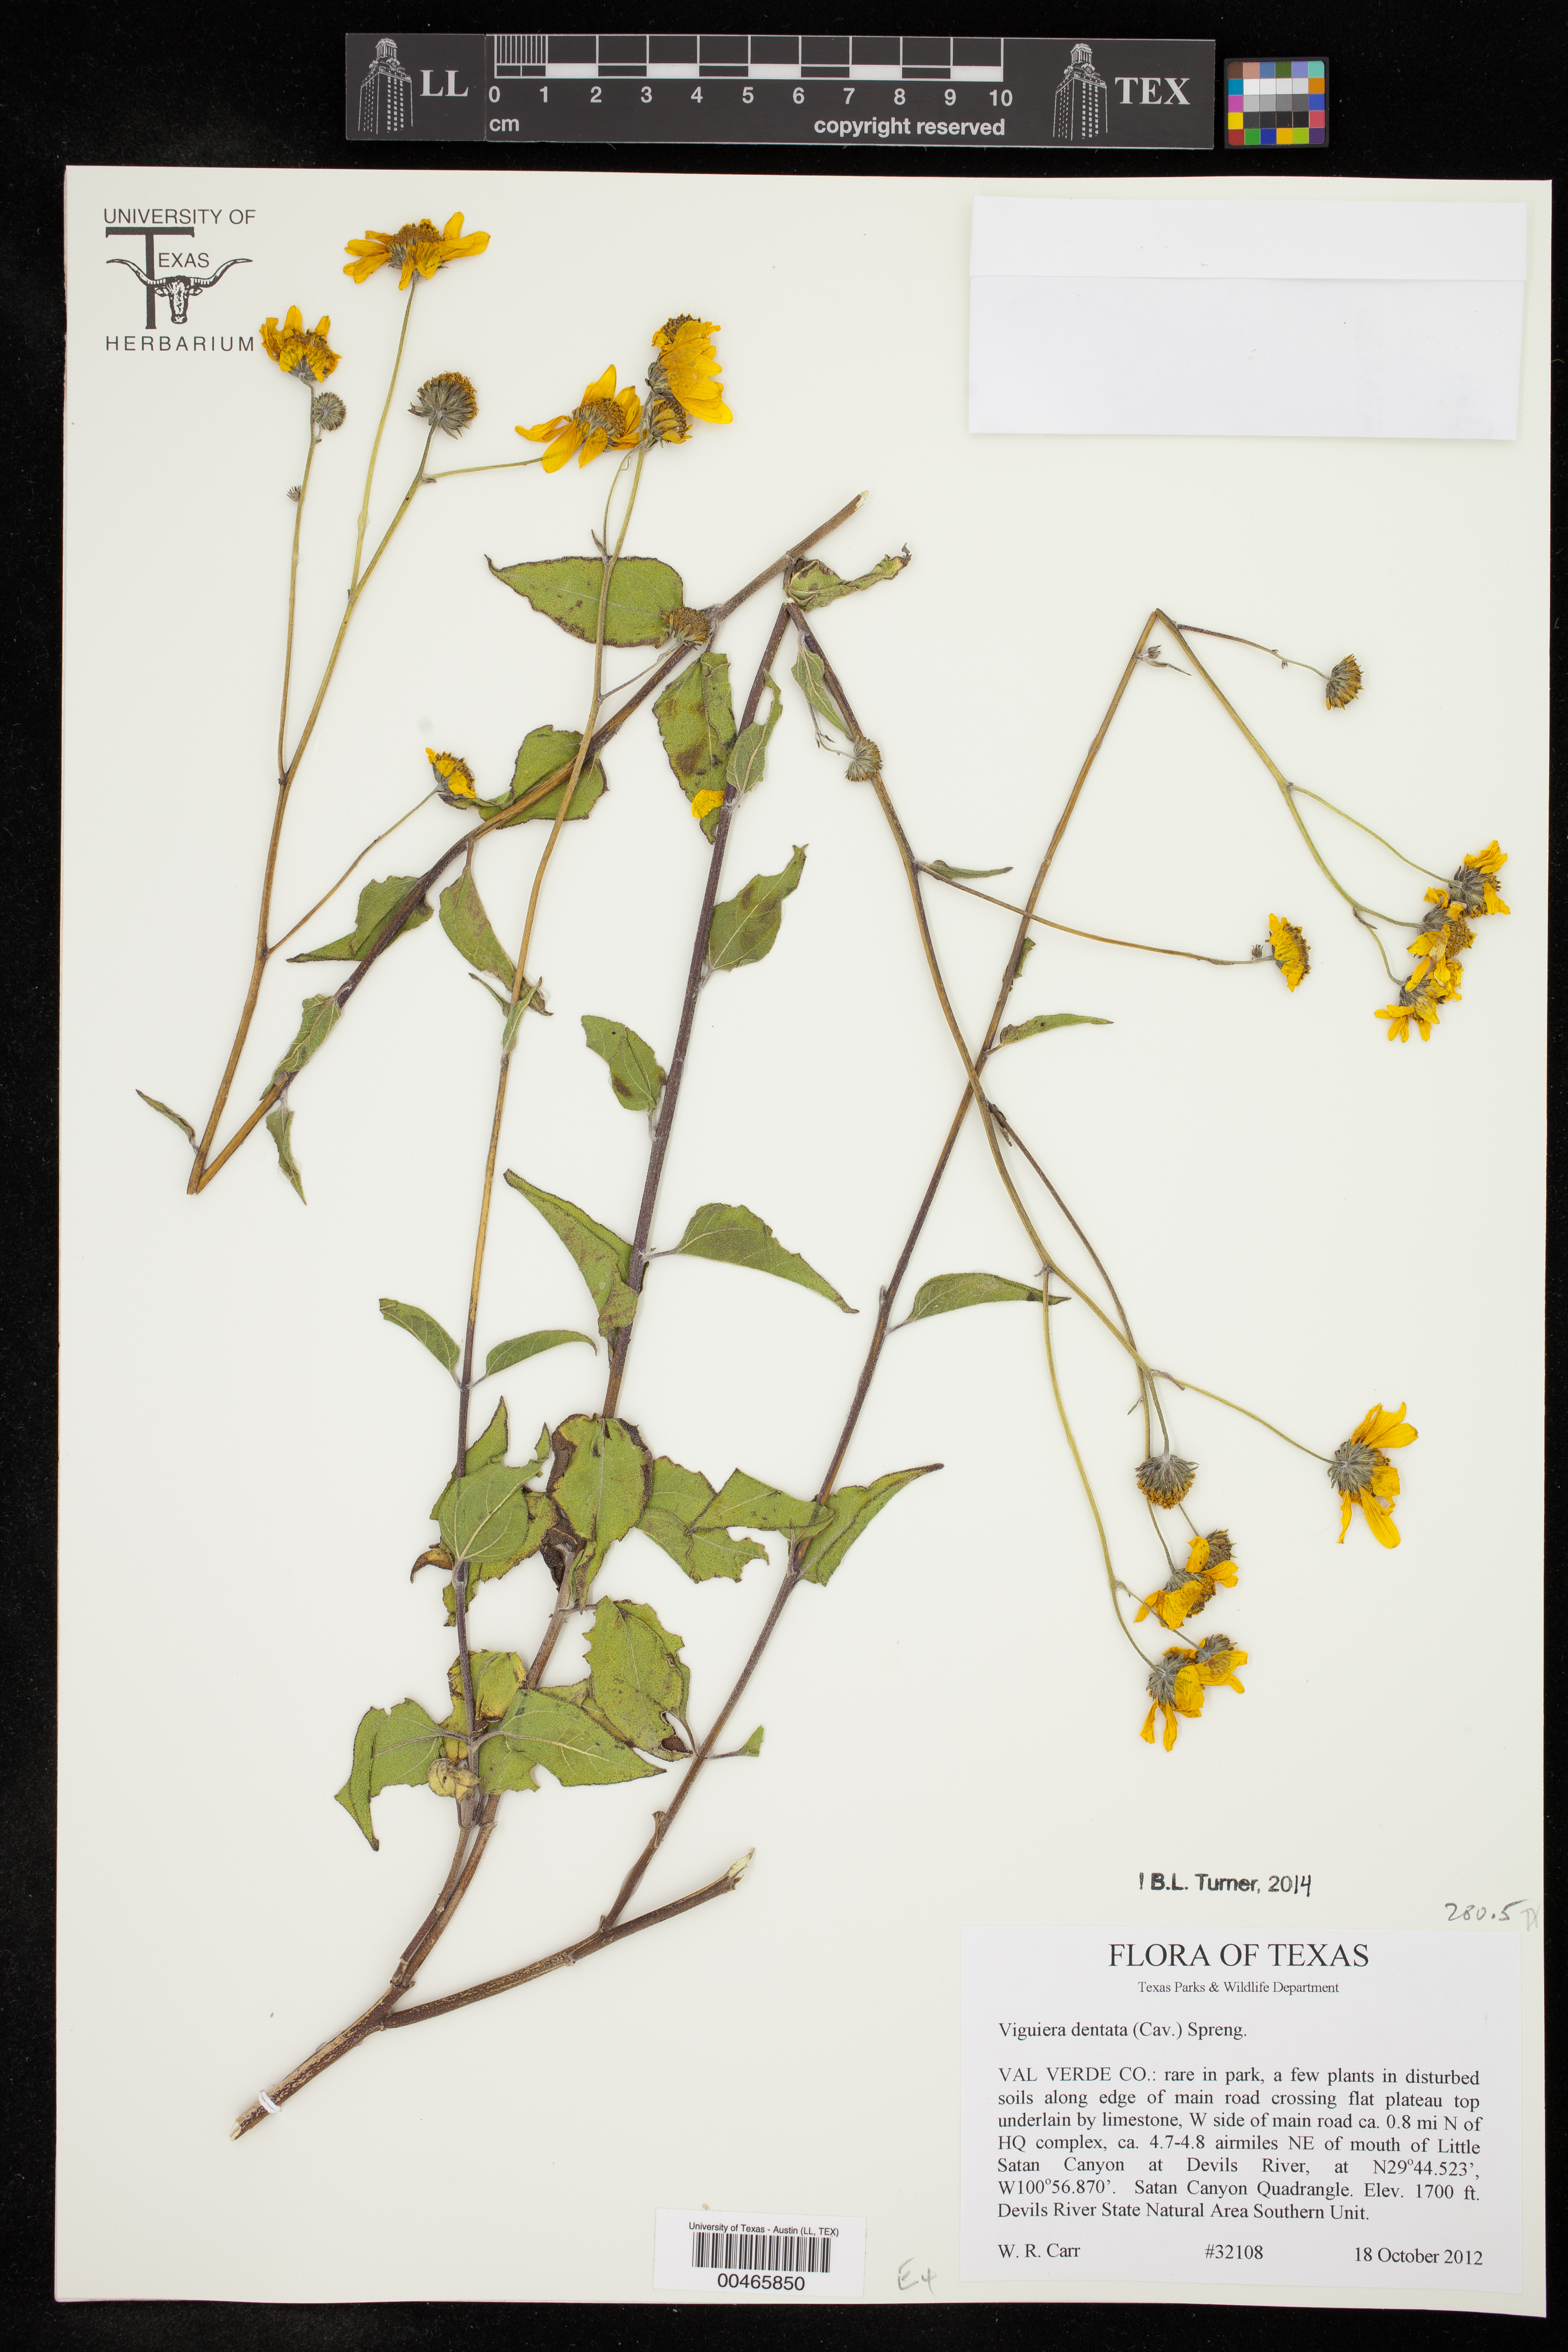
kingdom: Plantae
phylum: Tracheophyta
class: Magnoliopsida
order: Asterales
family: Asteraceae
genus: Viguiera
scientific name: Viguiera dentata
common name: Toothleaf
